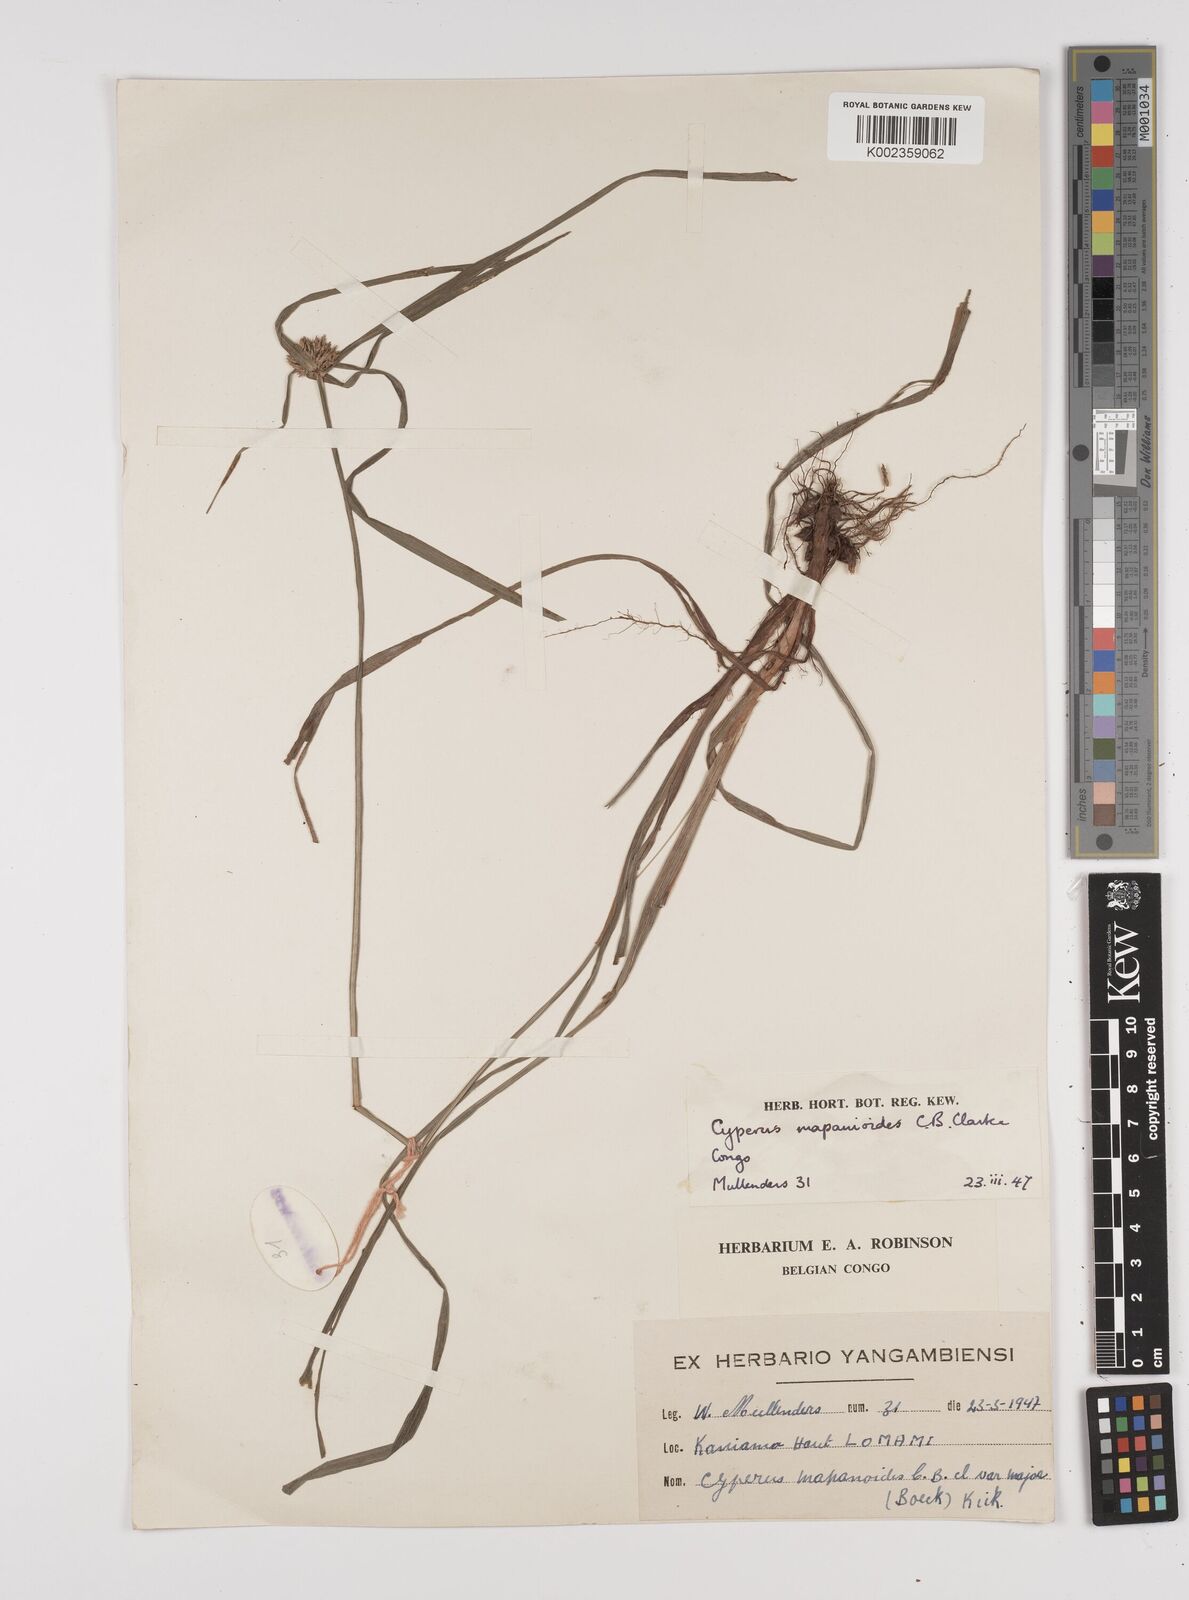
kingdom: Plantae
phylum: Tracheophyta
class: Liliopsida
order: Poales
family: Cyperaceae
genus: Cyperus
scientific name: Cyperus mapanioides
